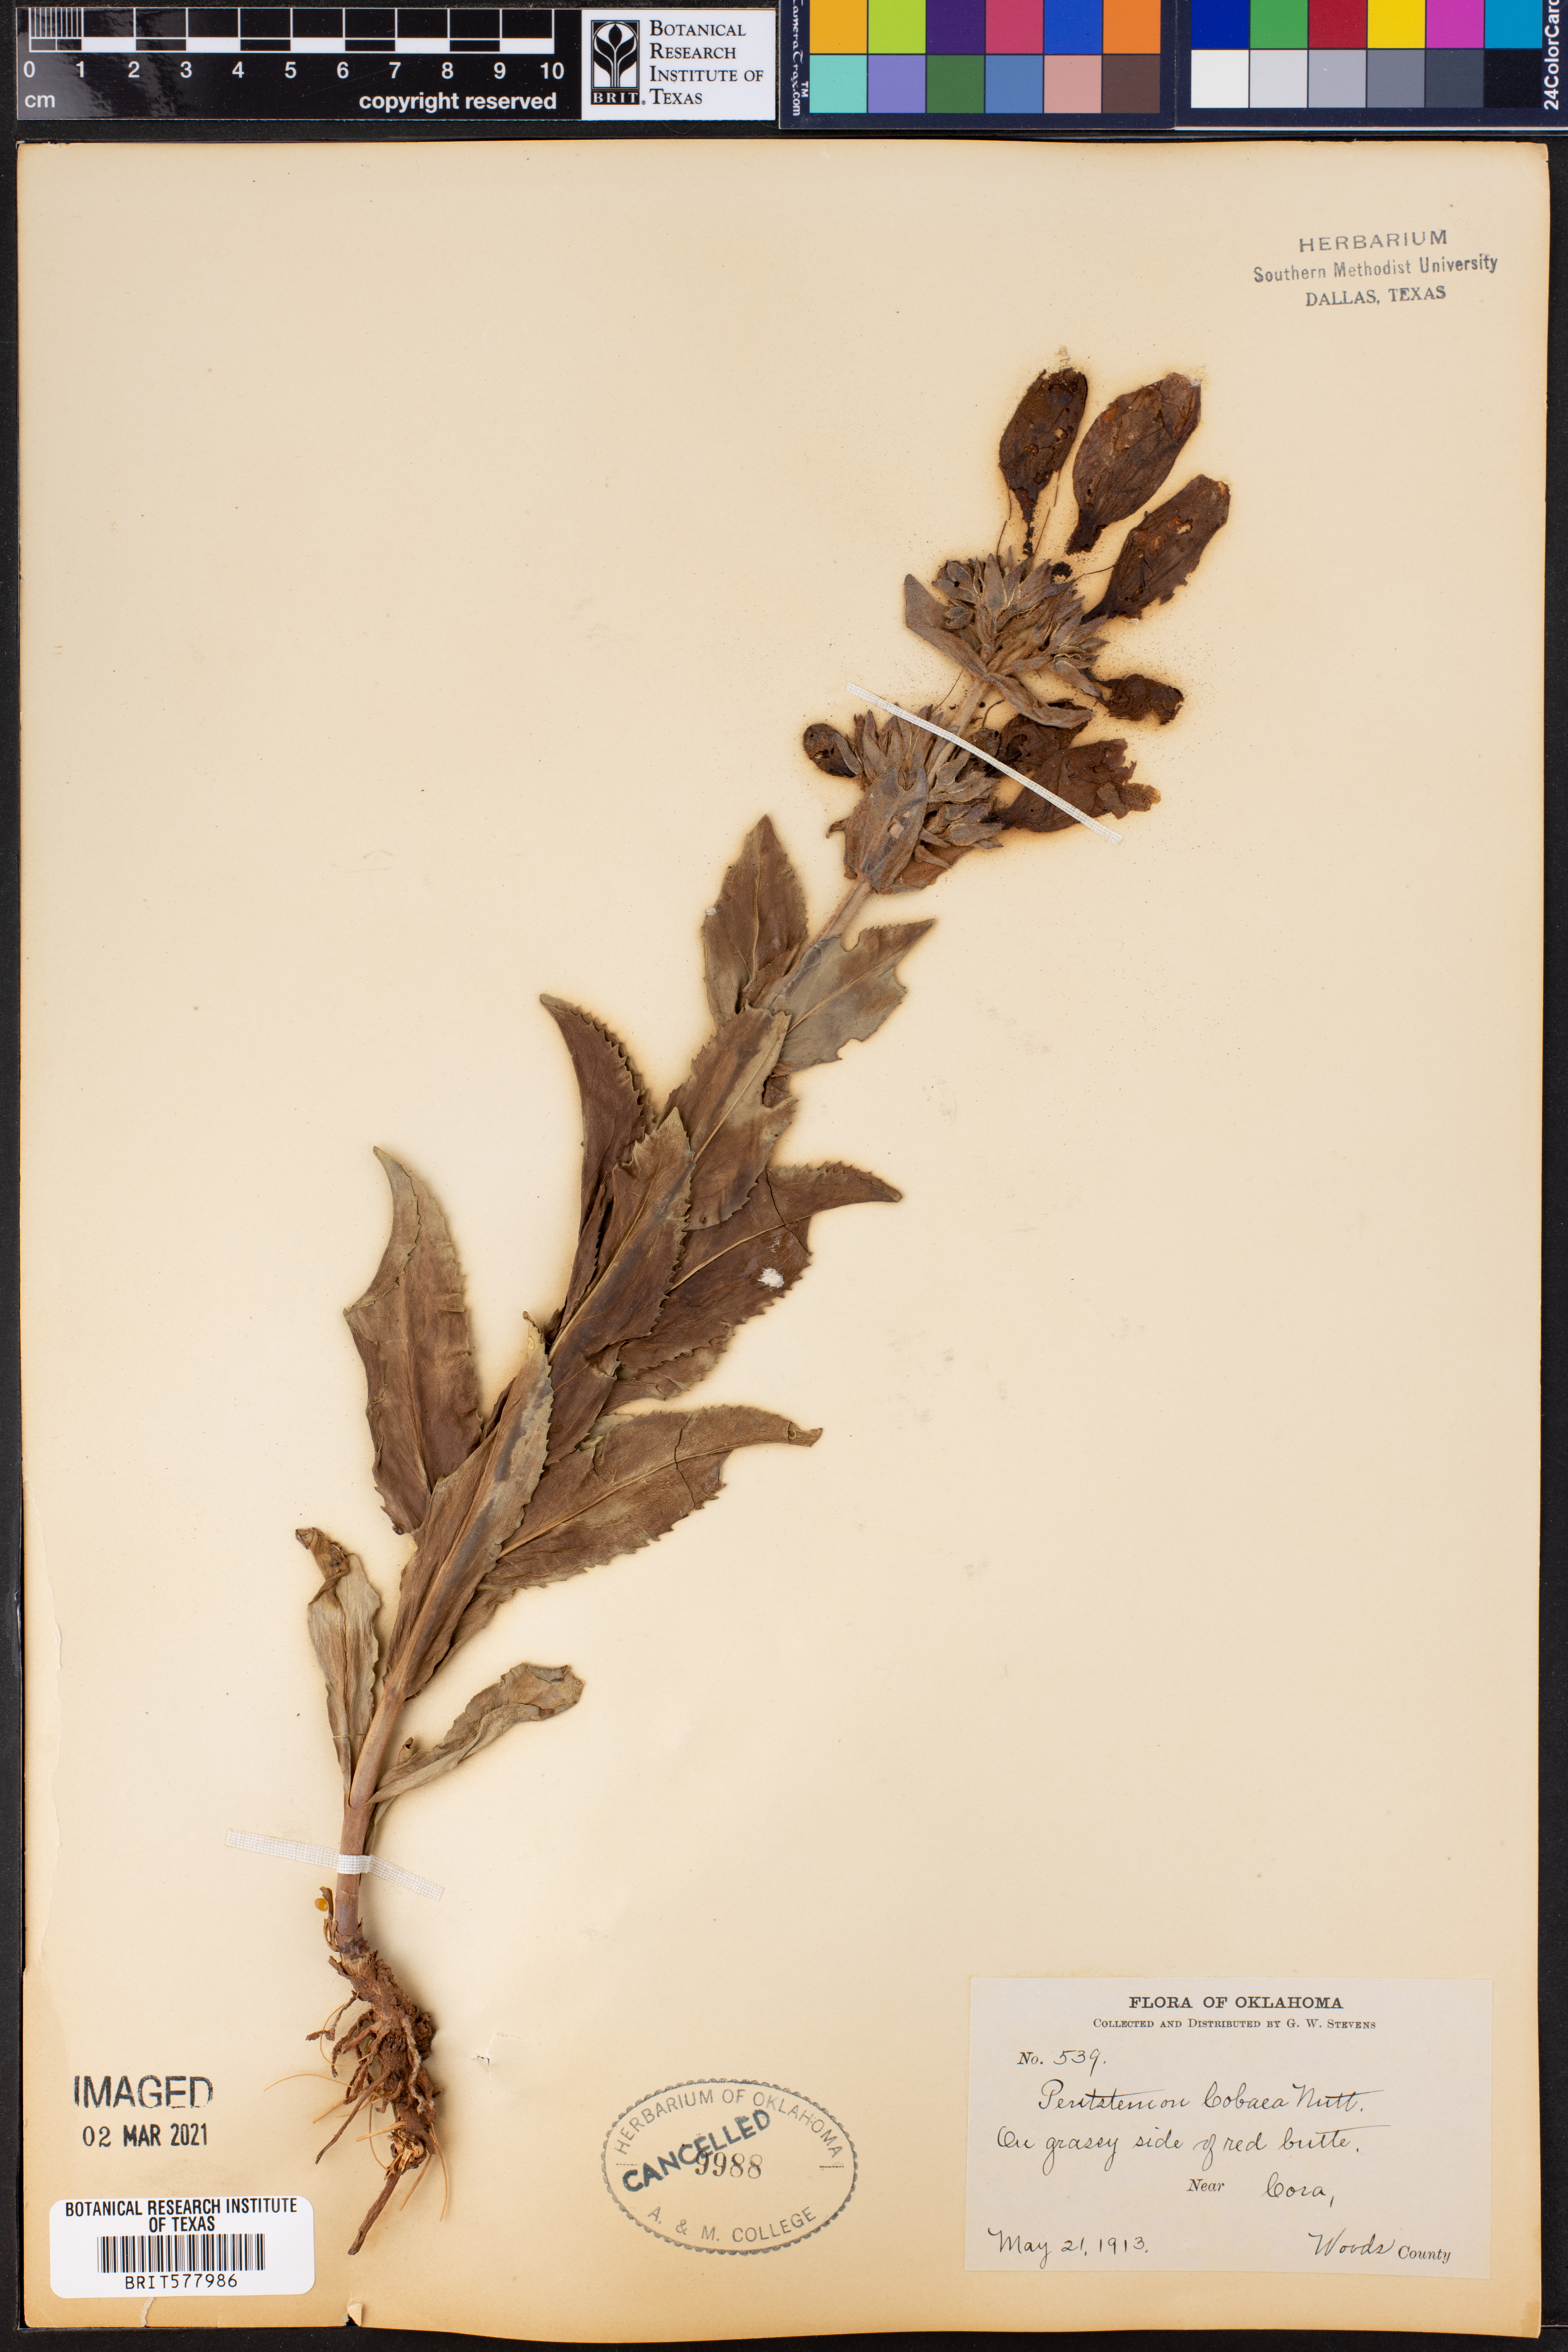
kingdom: Plantae
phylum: Tracheophyta
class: Magnoliopsida
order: Lamiales
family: Plantaginaceae
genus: Penstemon
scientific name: Penstemon cobaea
